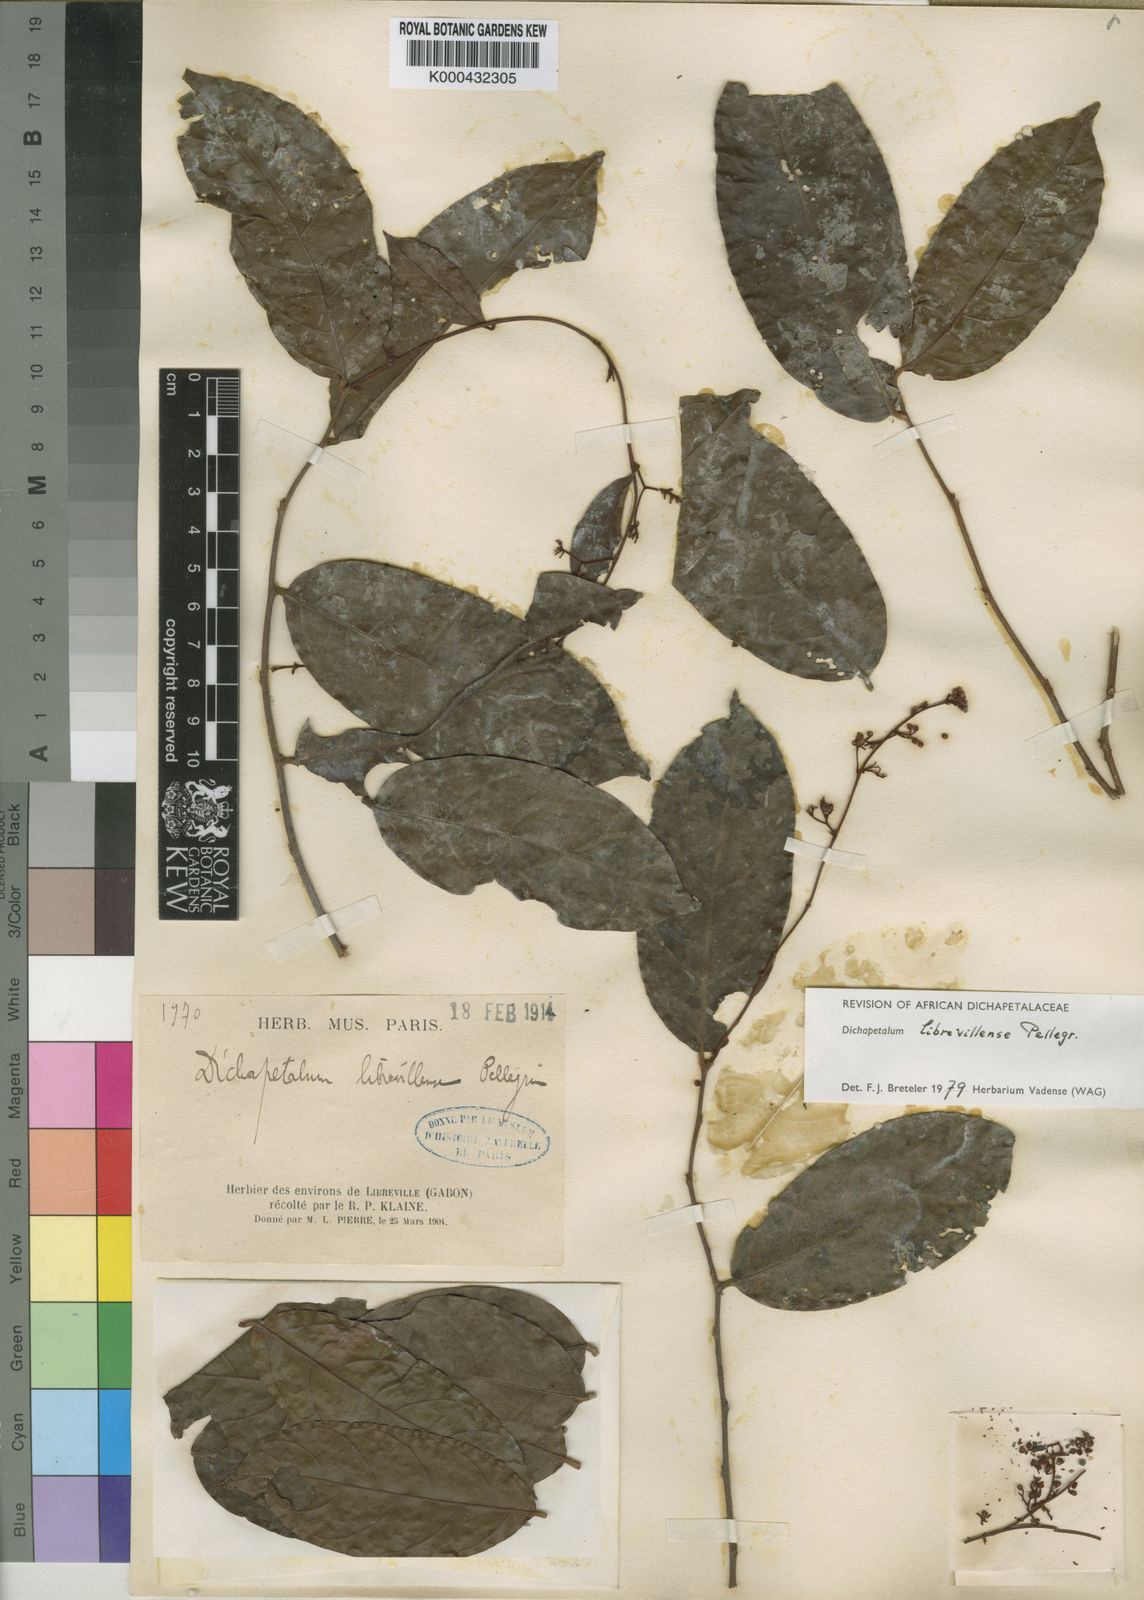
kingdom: Plantae
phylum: Tracheophyta
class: Magnoliopsida
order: Malpighiales
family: Dichapetalaceae
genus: Dichapetalum
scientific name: Dichapetalum librevillense
